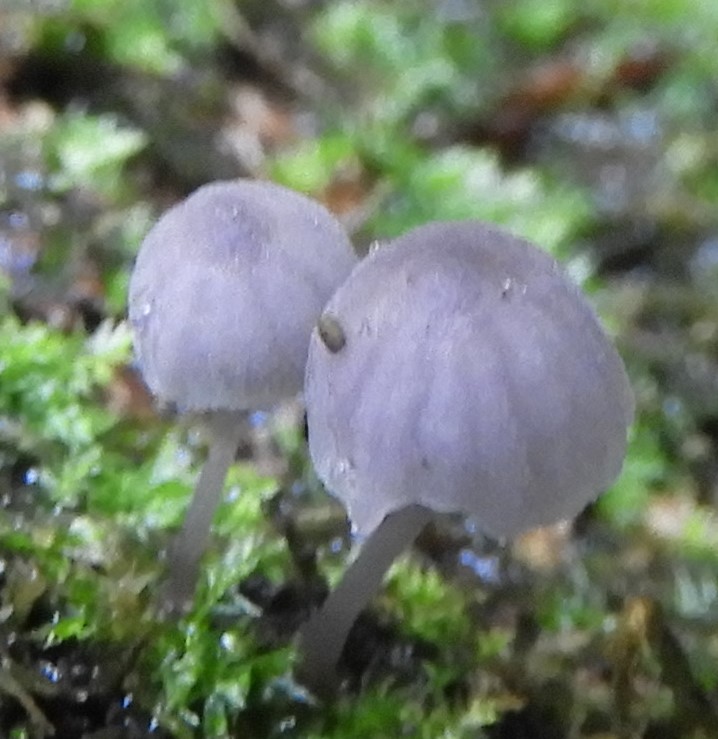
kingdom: Fungi
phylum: Basidiomycota
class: Agaricomycetes
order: Agaricales
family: Mycenaceae
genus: Mycena
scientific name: Mycena pseudocorticola
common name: gråblå bark-huesvamp
